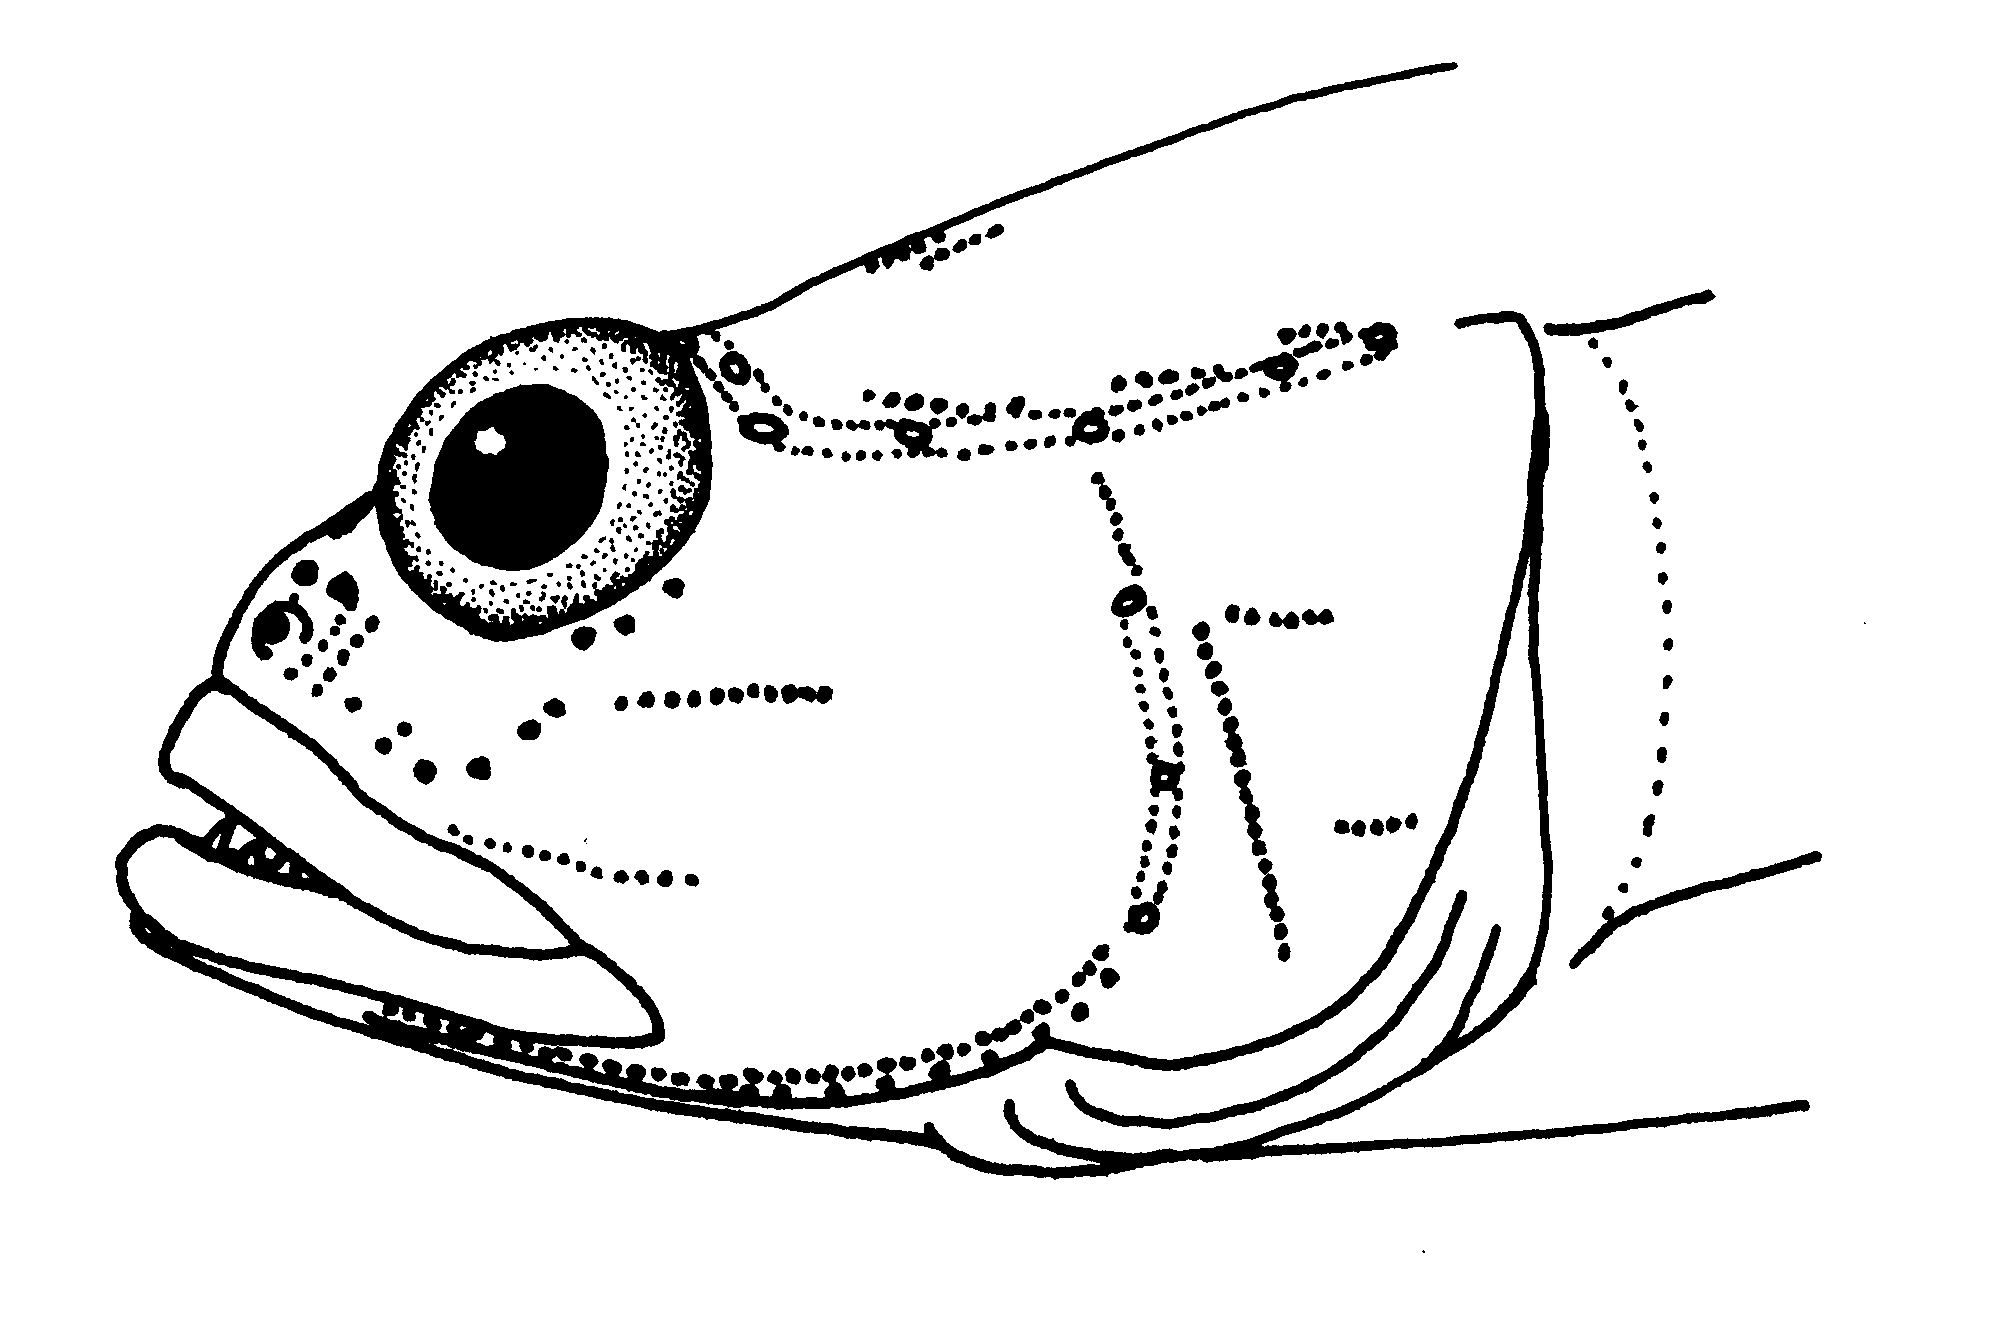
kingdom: Animalia
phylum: Chordata
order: Perciformes
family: Gobiidae
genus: Ctenogobiops
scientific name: Ctenogobiops crocineus
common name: Silverspot shrimpgoby
